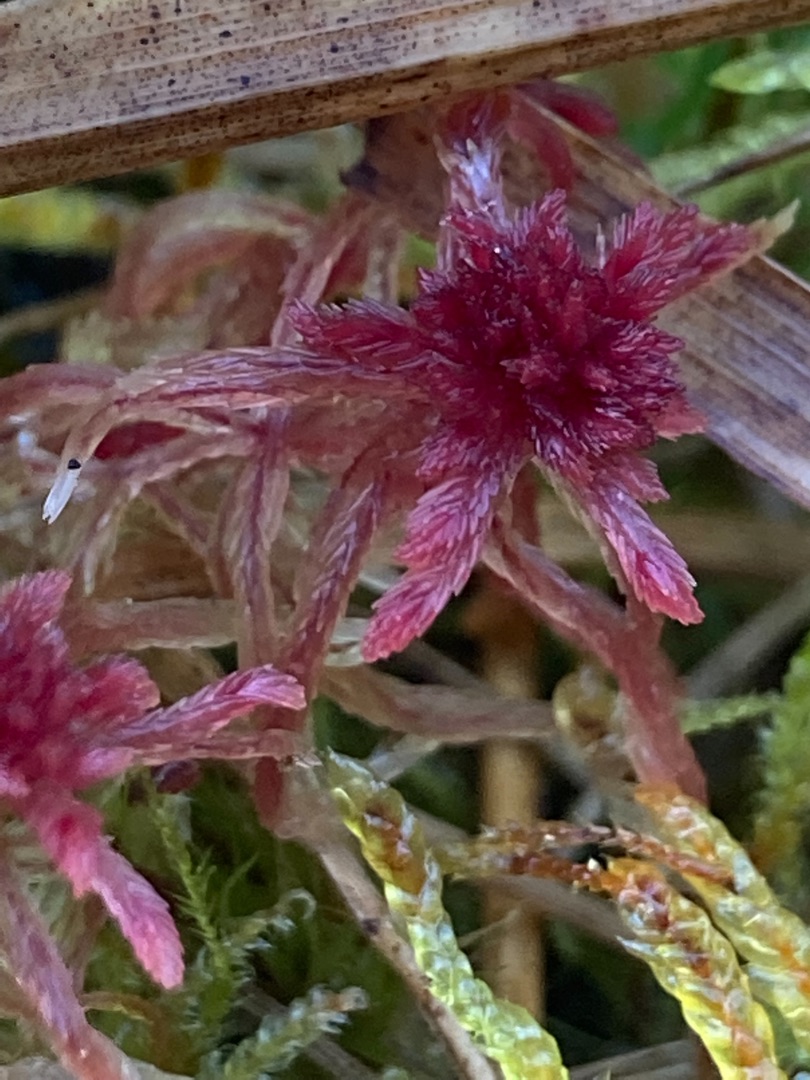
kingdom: Plantae
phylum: Bryophyta
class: Sphagnopsida
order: Sphagnales
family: Sphagnaceae
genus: Sphagnum
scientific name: Sphagnum
